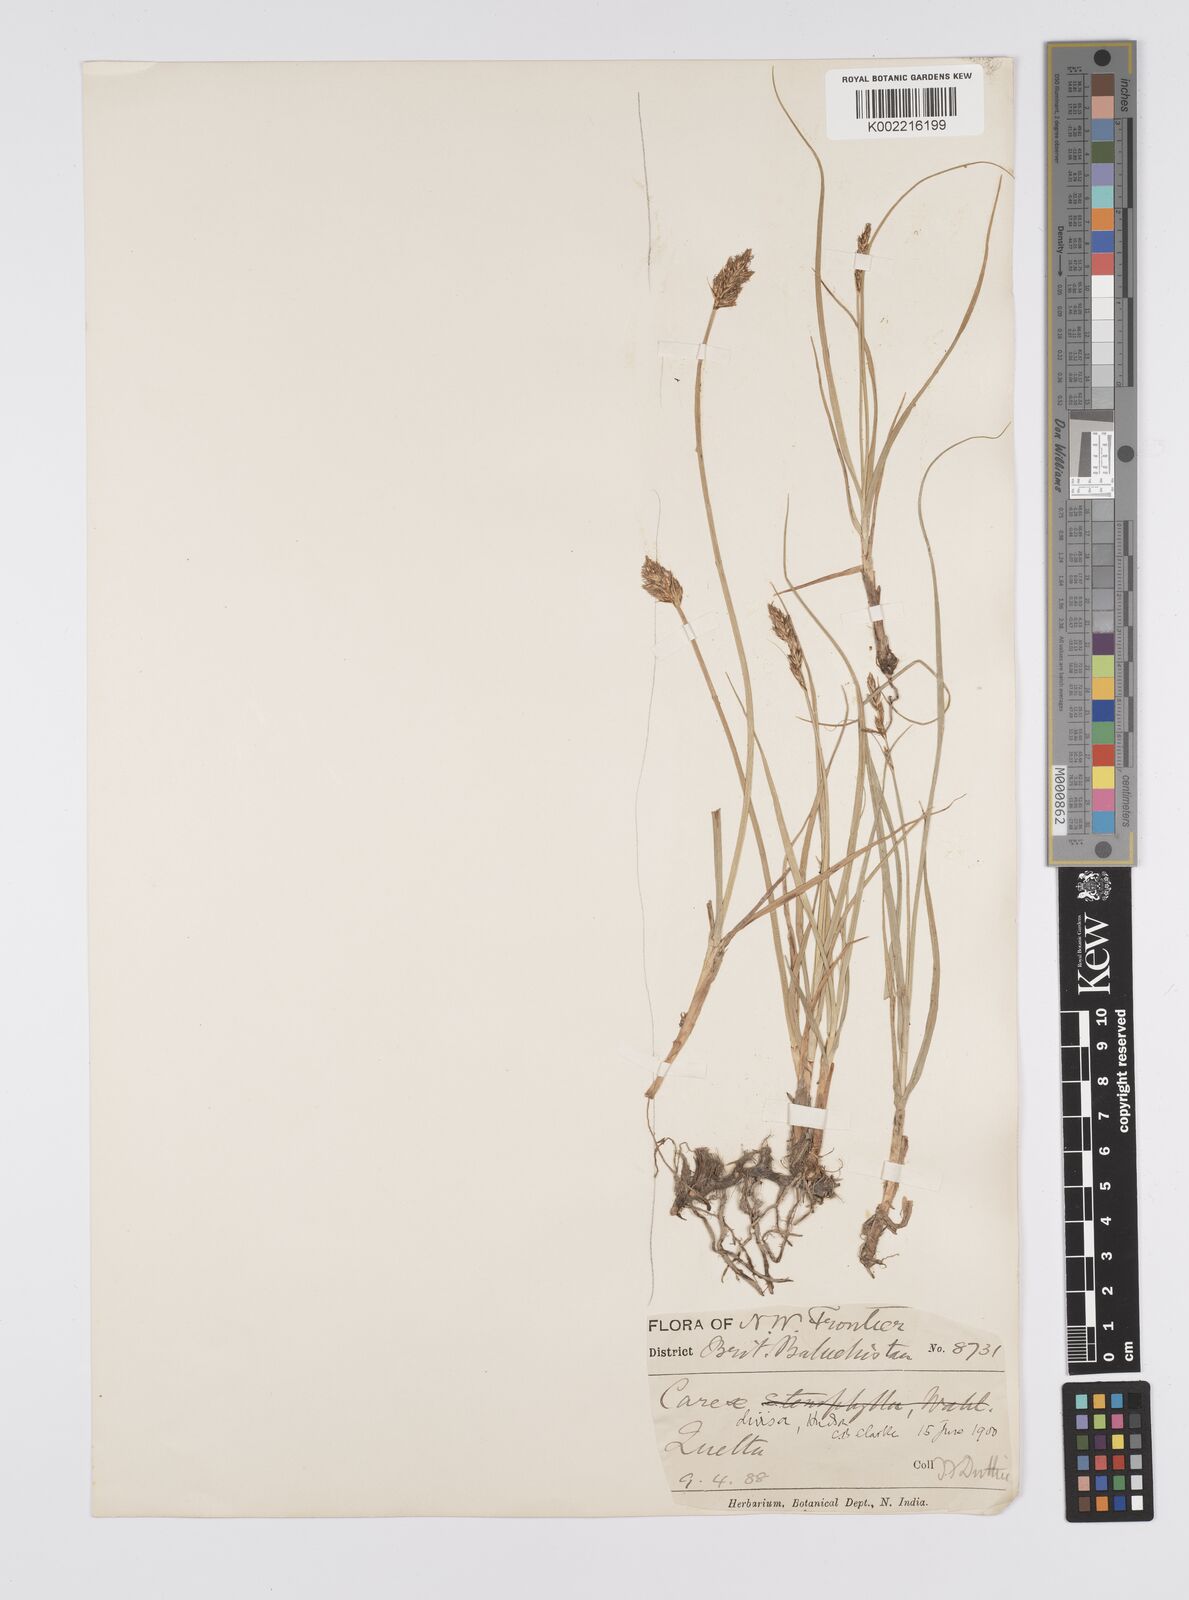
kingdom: Plantae
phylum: Tracheophyta
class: Liliopsida
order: Poales
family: Cyperaceae
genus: Carex
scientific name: Carex divisa
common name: Divided sedge
